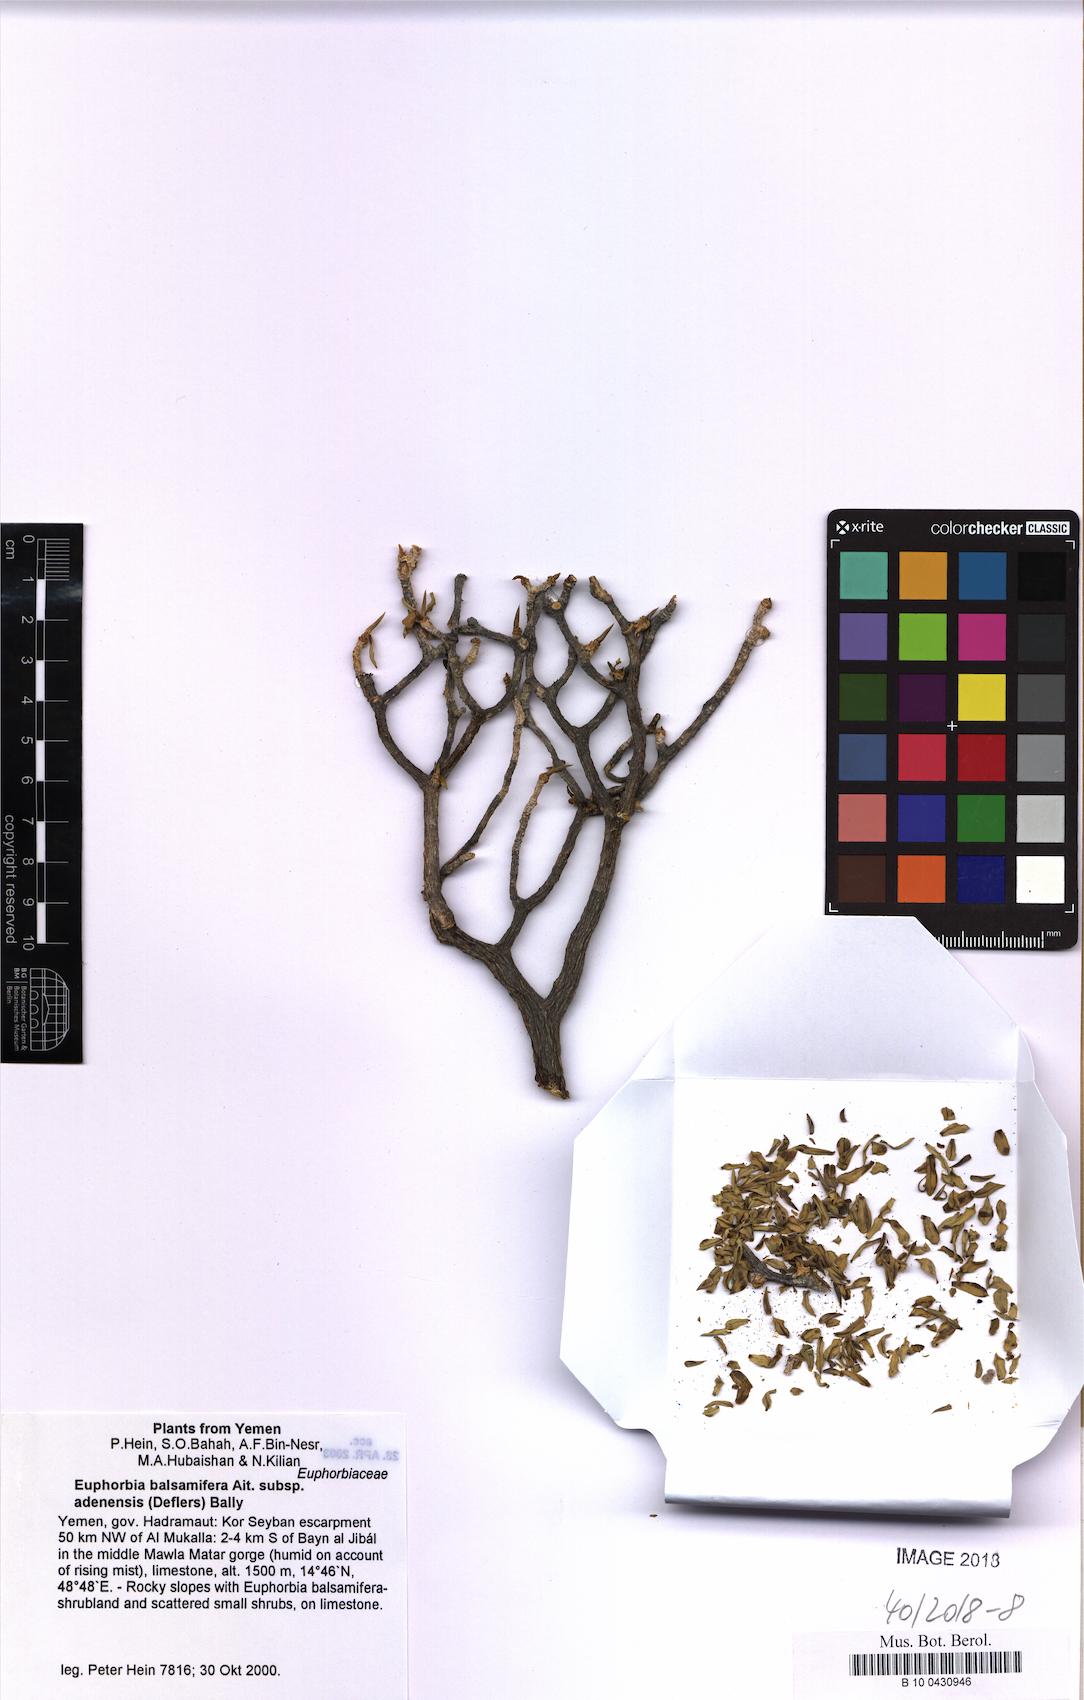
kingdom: Plantae
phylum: Tracheophyta
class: Magnoliopsida
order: Malpighiales
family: Euphorbiaceae
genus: Euphorbia
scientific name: Euphorbia adenensis
